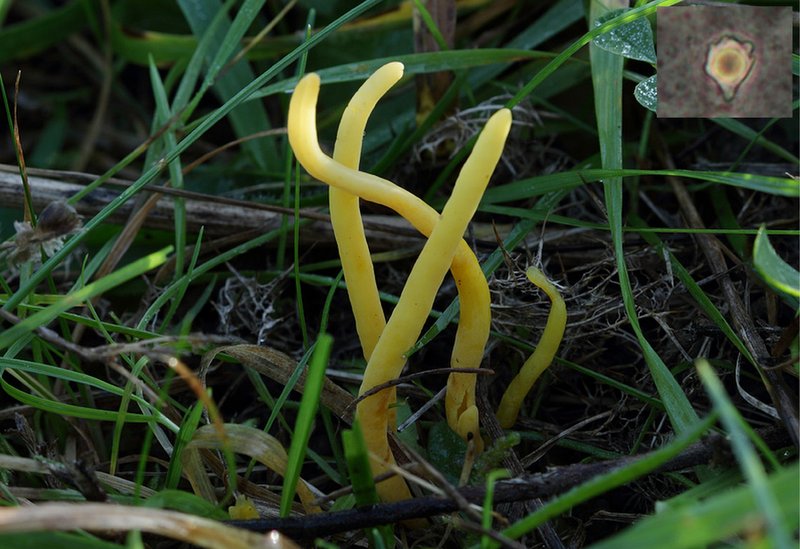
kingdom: Fungi
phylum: Basidiomycota
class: Agaricomycetes
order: Agaricales
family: Clavariaceae
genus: Clavulinopsis
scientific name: Clavulinopsis helvola
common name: orangegul køllesvamp
